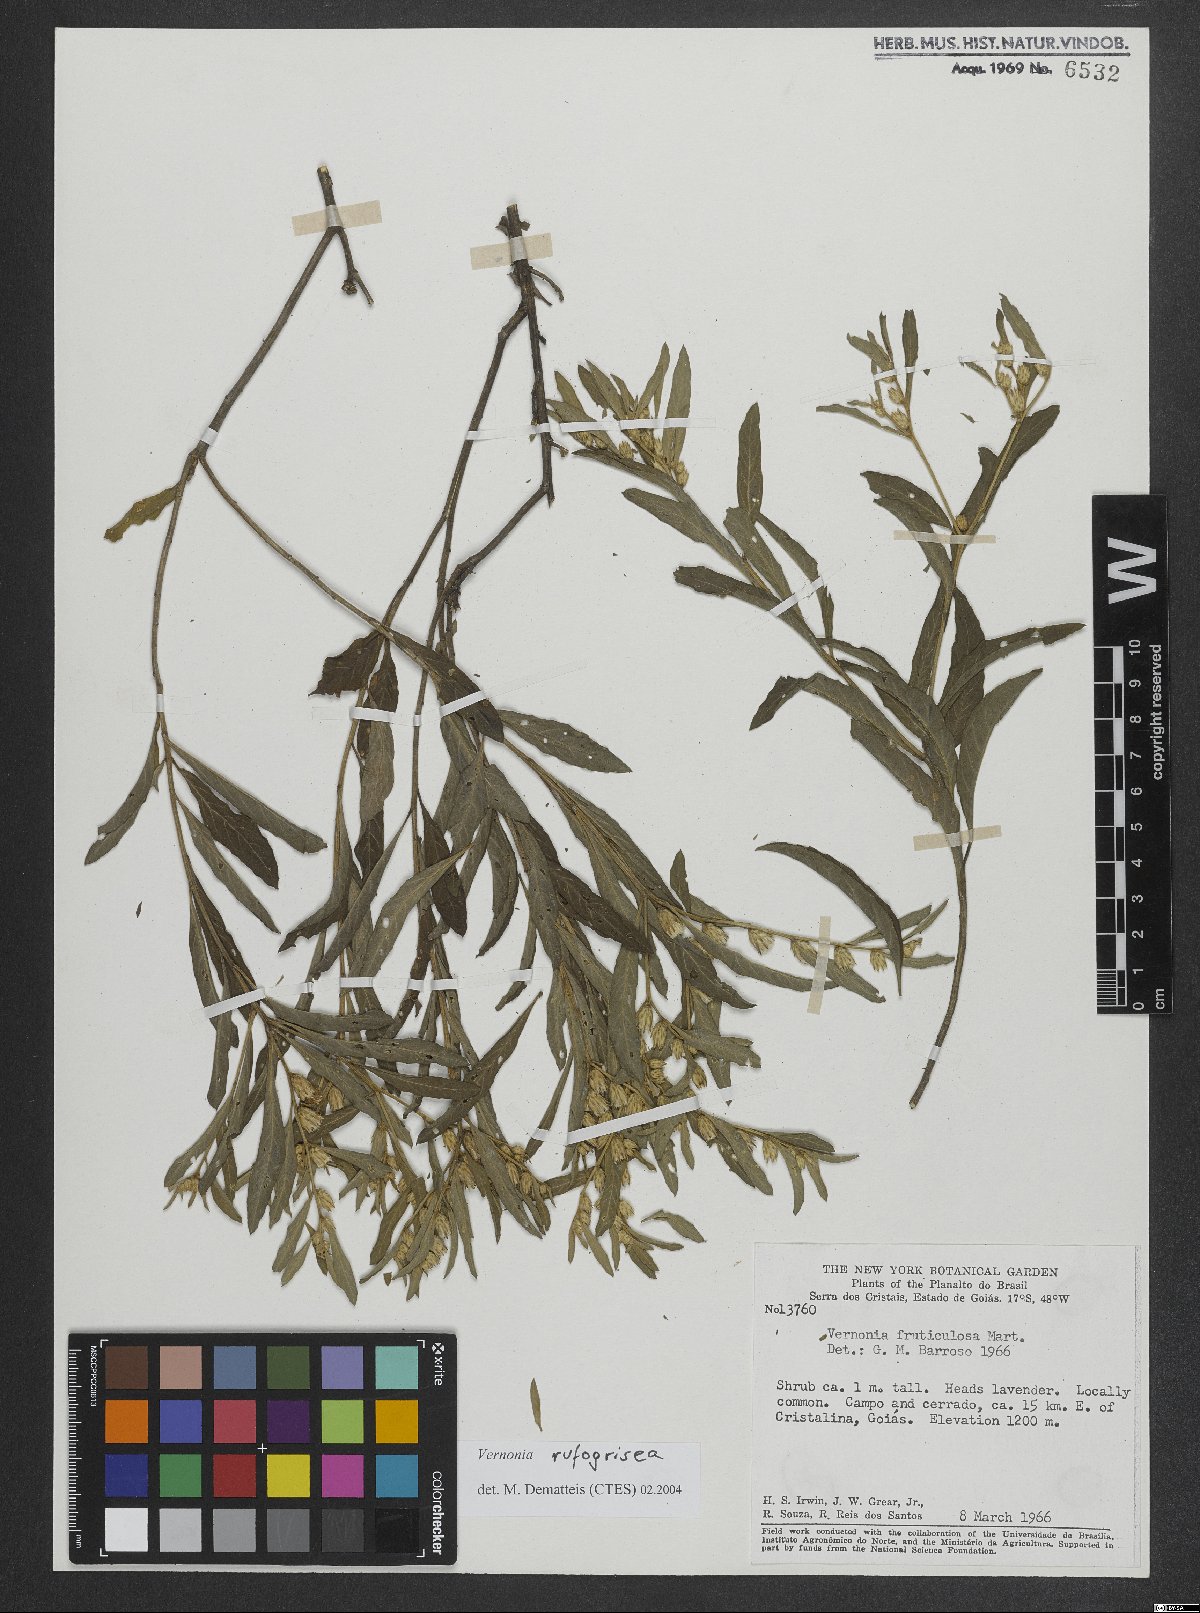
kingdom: Plantae
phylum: Tracheophyta
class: Magnoliopsida
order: Asterales
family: Asteraceae
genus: Lepidaploa
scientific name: Lepidaploa rufogrisea
